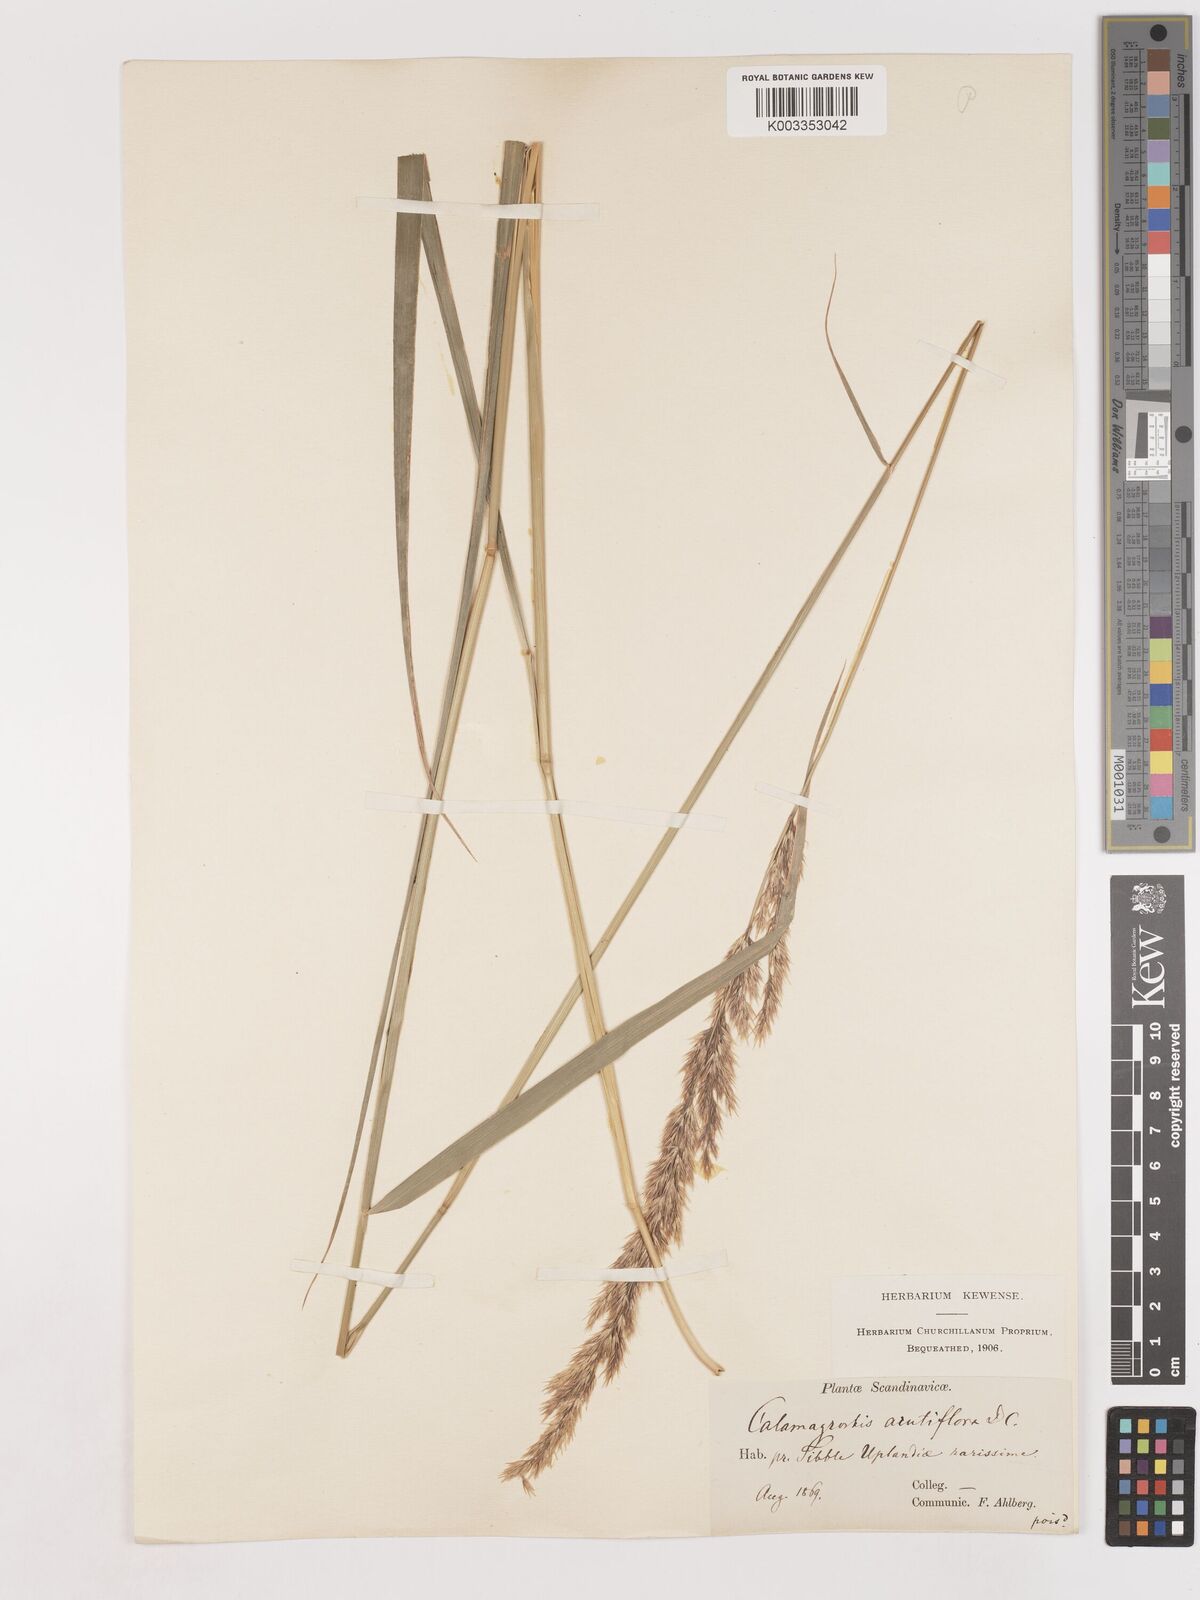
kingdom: Plantae
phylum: Tracheophyta
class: Liliopsida
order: Poales
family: Poaceae
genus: Calamagrostis
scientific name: Calamagrostis epigejos
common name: Wood small-reed
